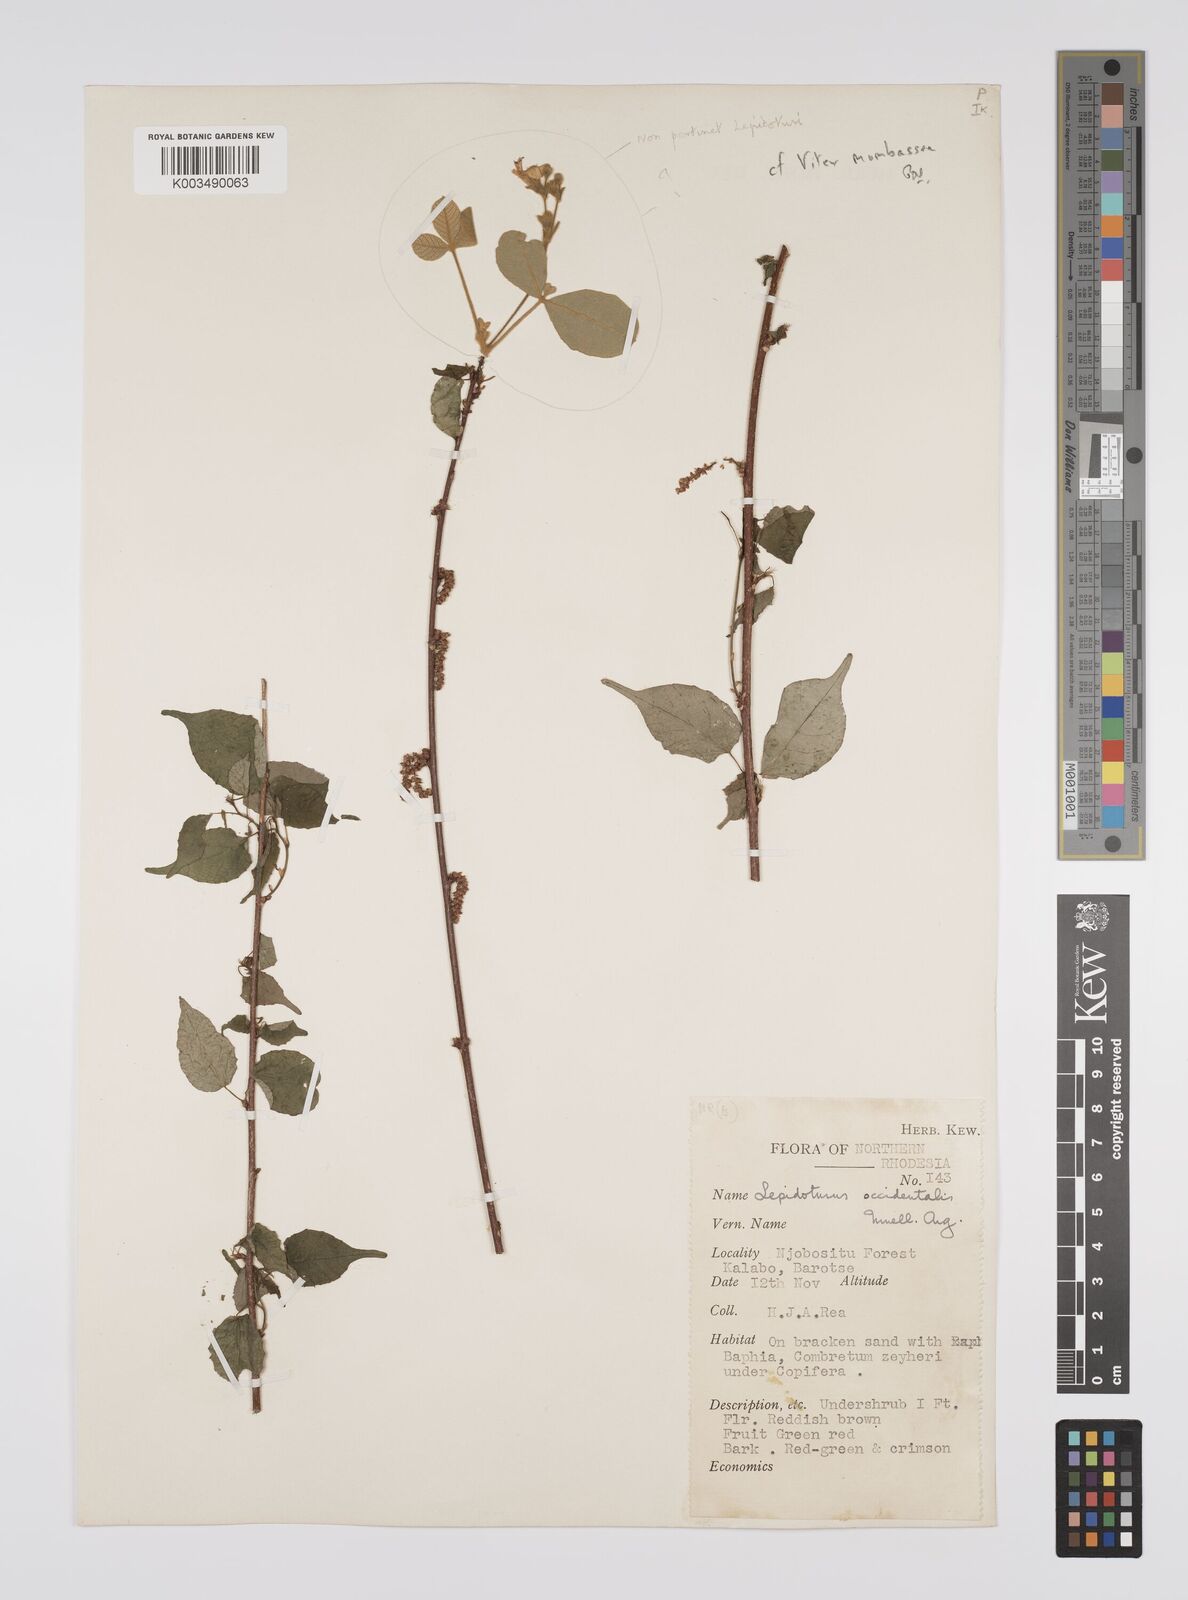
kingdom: Plantae
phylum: Tracheophyta
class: Magnoliopsida
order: Malpighiales
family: Euphorbiaceae
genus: Alchornea
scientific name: Alchornea occidentalis
